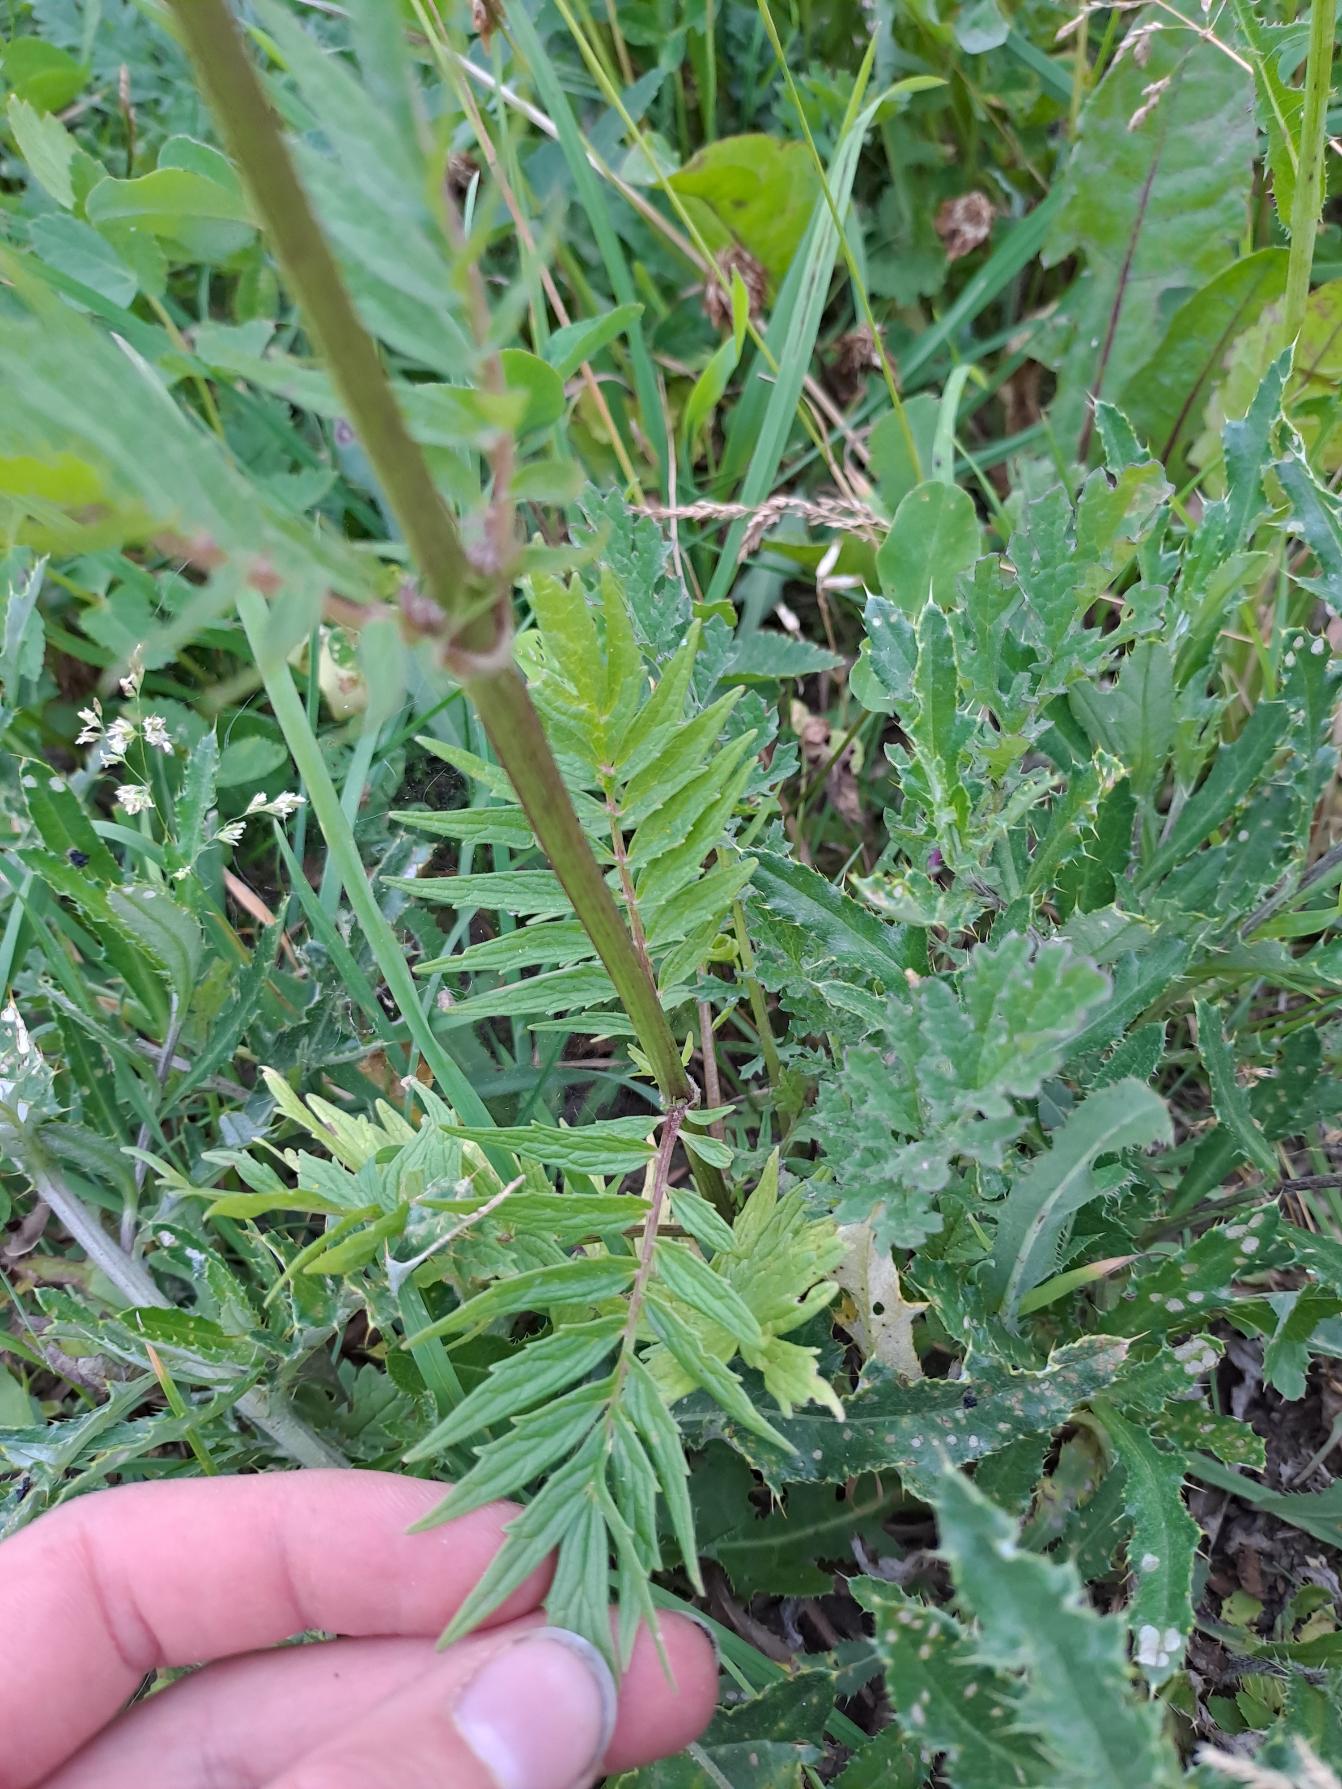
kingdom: Plantae
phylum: Tracheophyta
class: Magnoliopsida
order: Dipsacales
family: Caprifoliaceae
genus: Valeriana
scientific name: Valeriana sambucifolia
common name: Hyldebladet baldrian
